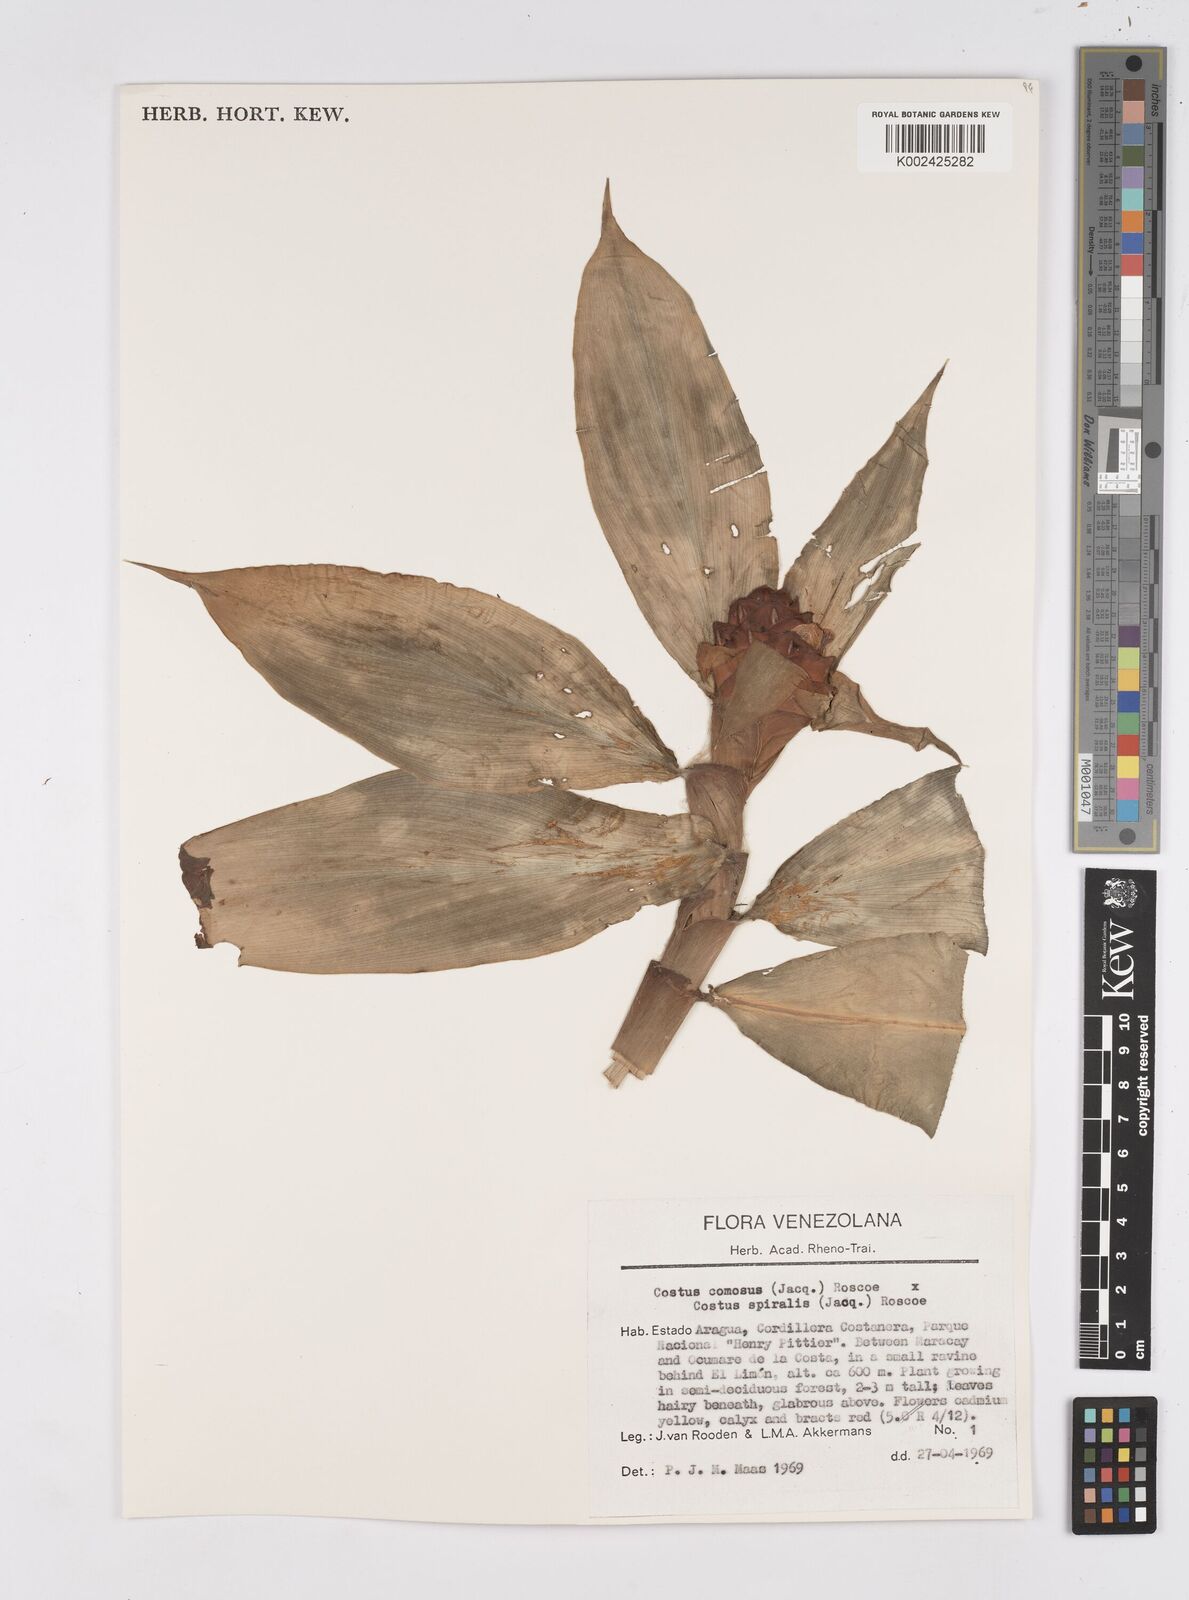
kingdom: Plantae
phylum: Tracheophyta
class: Liliopsida
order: Zingiberales
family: Costaceae
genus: Costus
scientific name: Costus
